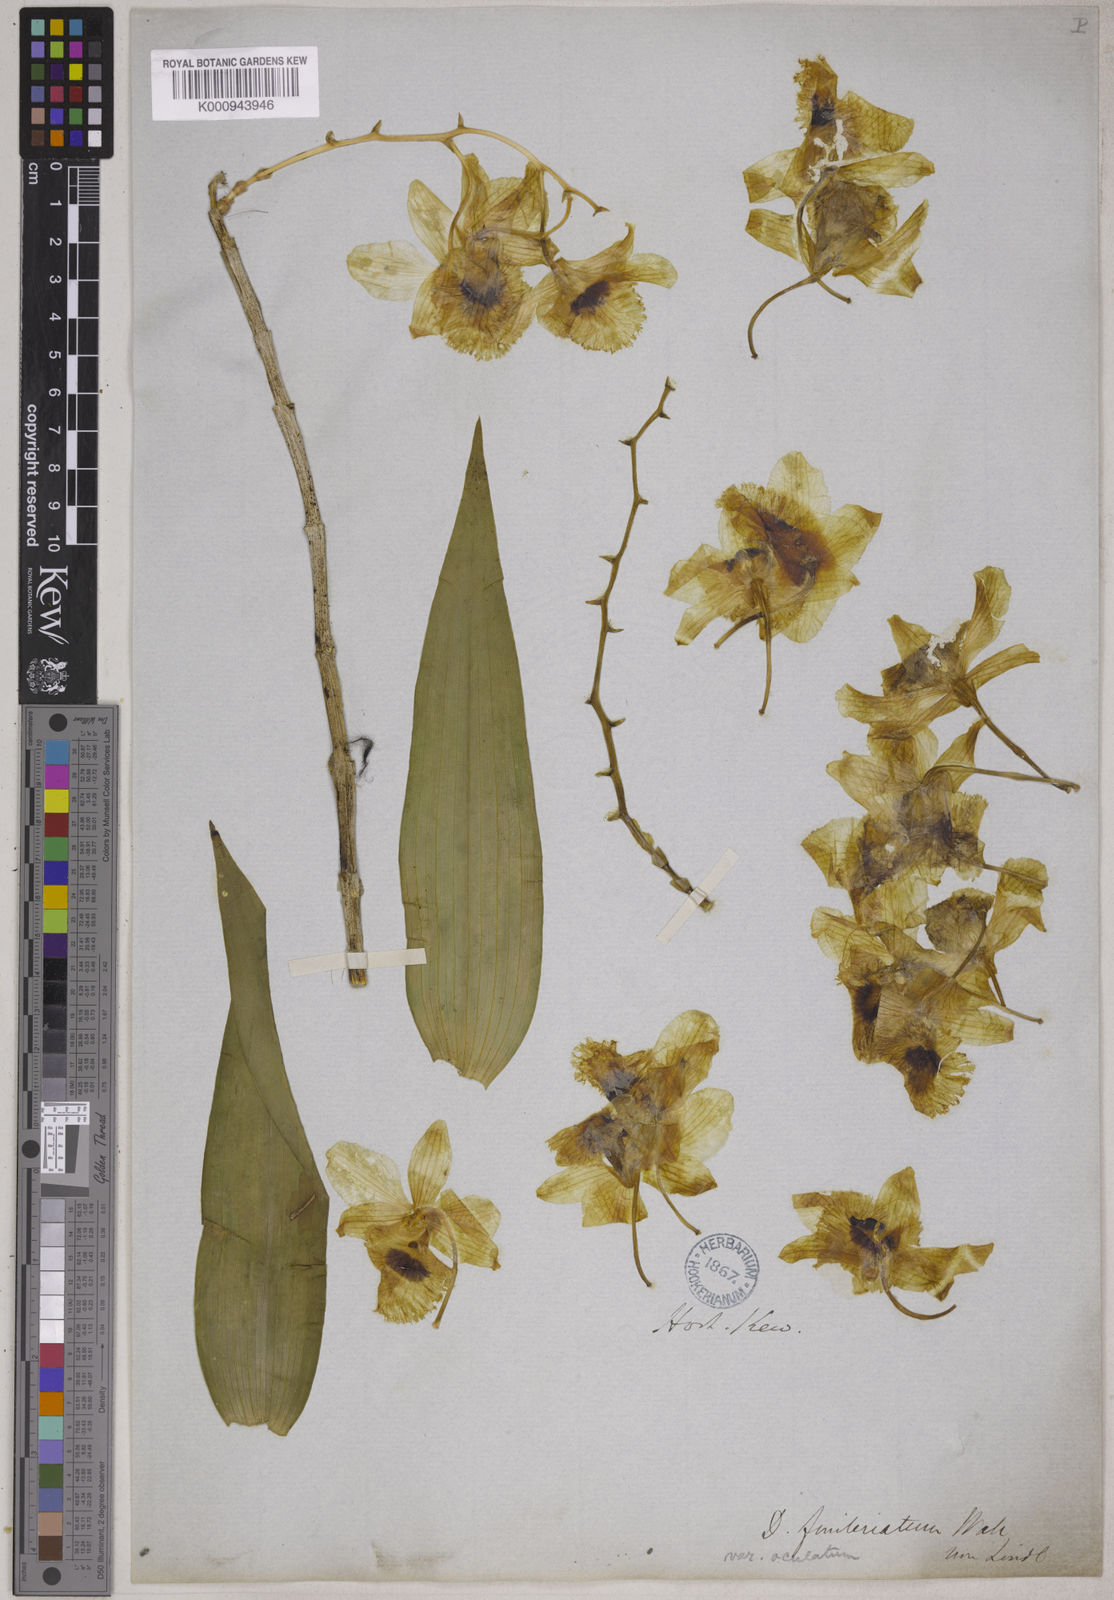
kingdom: Plantae
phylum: Tracheophyta
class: Liliopsida
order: Asparagales
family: Orchidaceae
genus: Dendrobium
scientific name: Dendrobium fimbriatum
